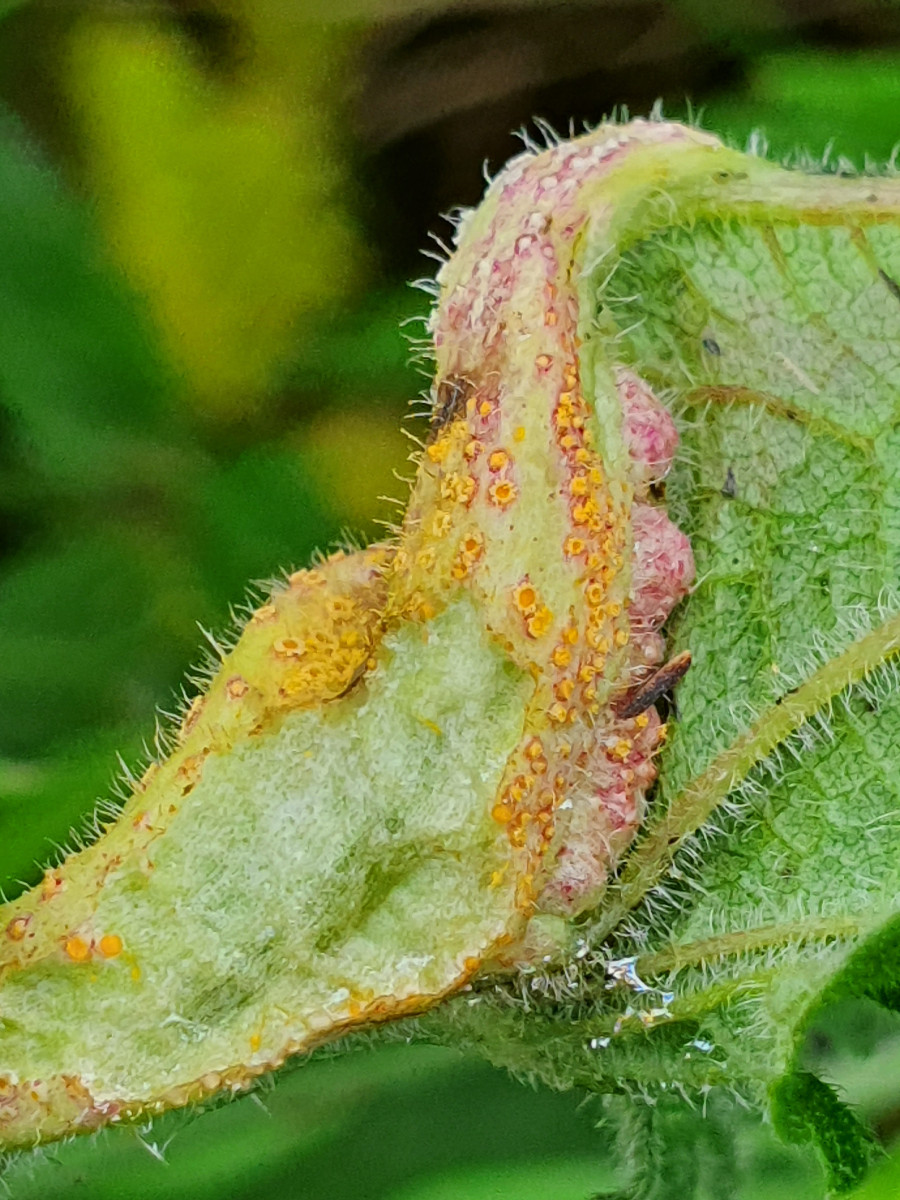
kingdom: Fungi
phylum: Basidiomycota
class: Pucciniomycetes
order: Pucciniales
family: Pucciniaceae
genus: Puccinia
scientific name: Puccinia urticata
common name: nældegalle-tvecellerust
